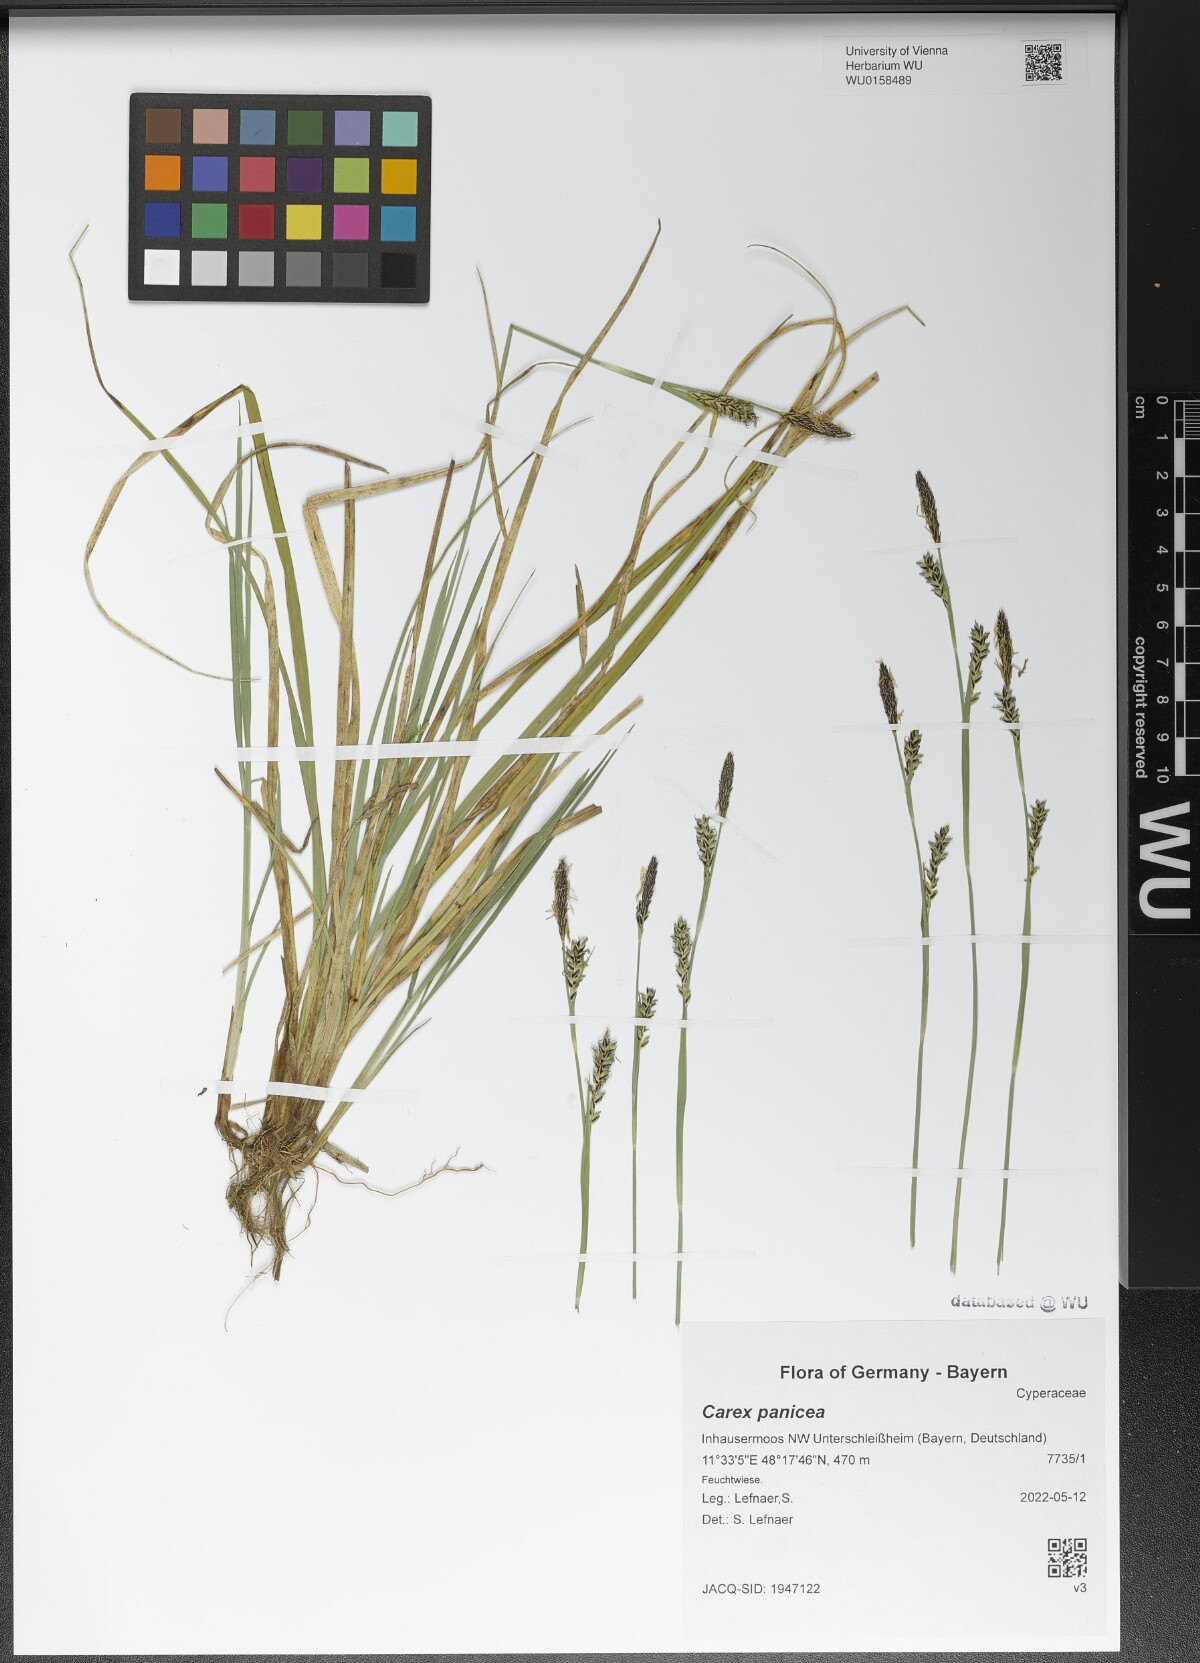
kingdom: Plantae
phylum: Tracheophyta
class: Liliopsida
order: Poales
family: Cyperaceae
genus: Carex
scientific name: Carex panicea
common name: Carnation sedge
